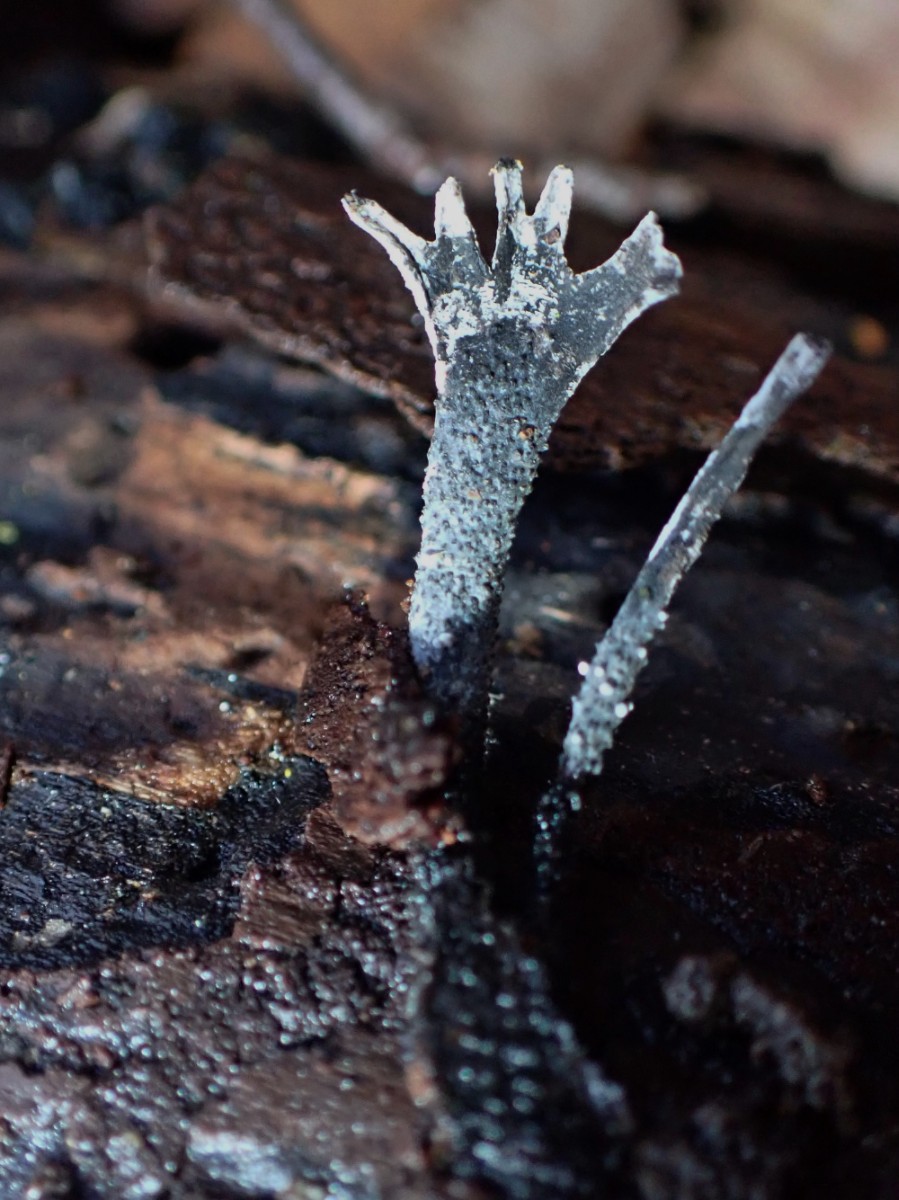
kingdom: Fungi
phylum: Ascomycota
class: Sordariomycetes
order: Xylariales
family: Xylariaceae
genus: Xylaria
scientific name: Xylaria hypoxylon
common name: grenet stødsvamp
